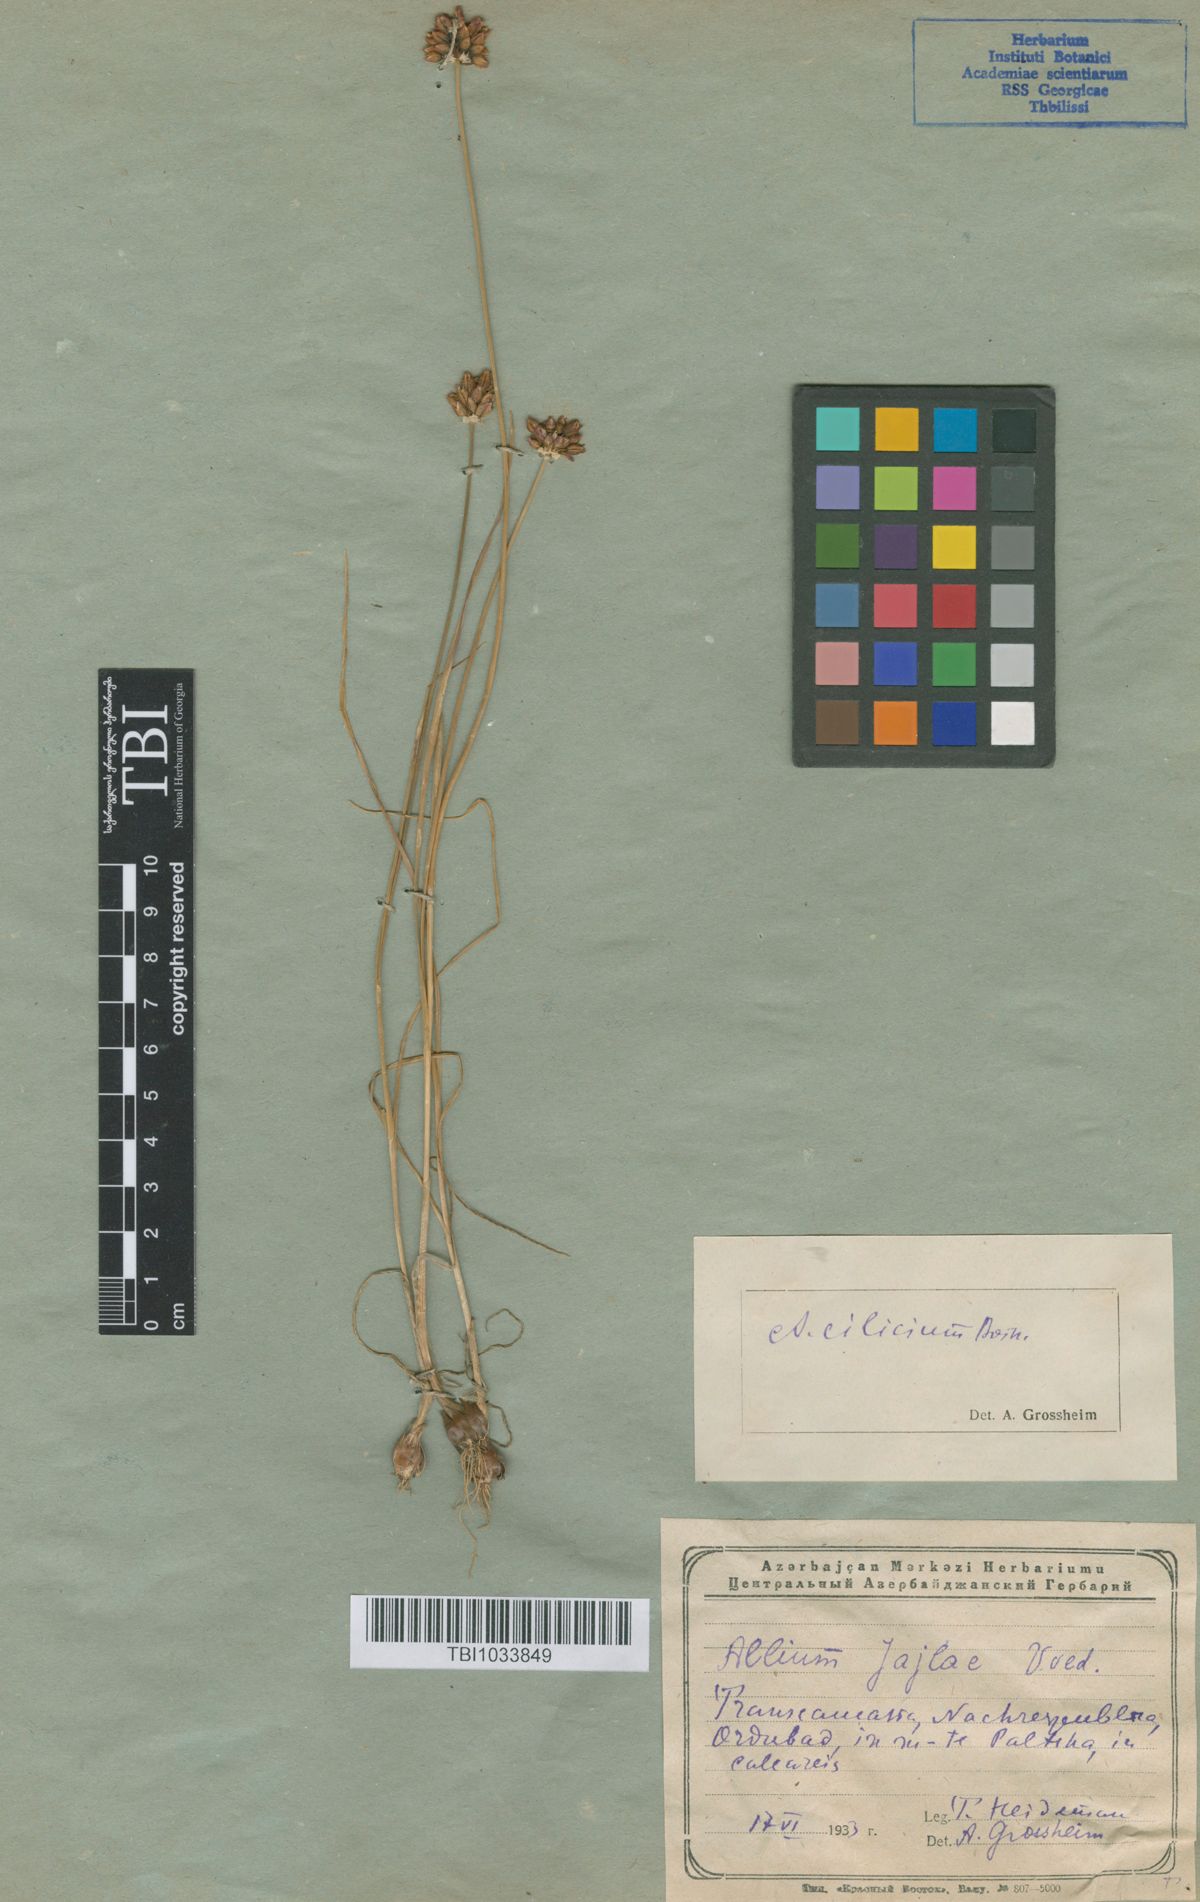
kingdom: Plantae
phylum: Tracheophyta
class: Liliopsida
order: Asparagales
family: Amaryllidaceae
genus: Allium
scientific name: Allium rotundum
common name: Sand leek
